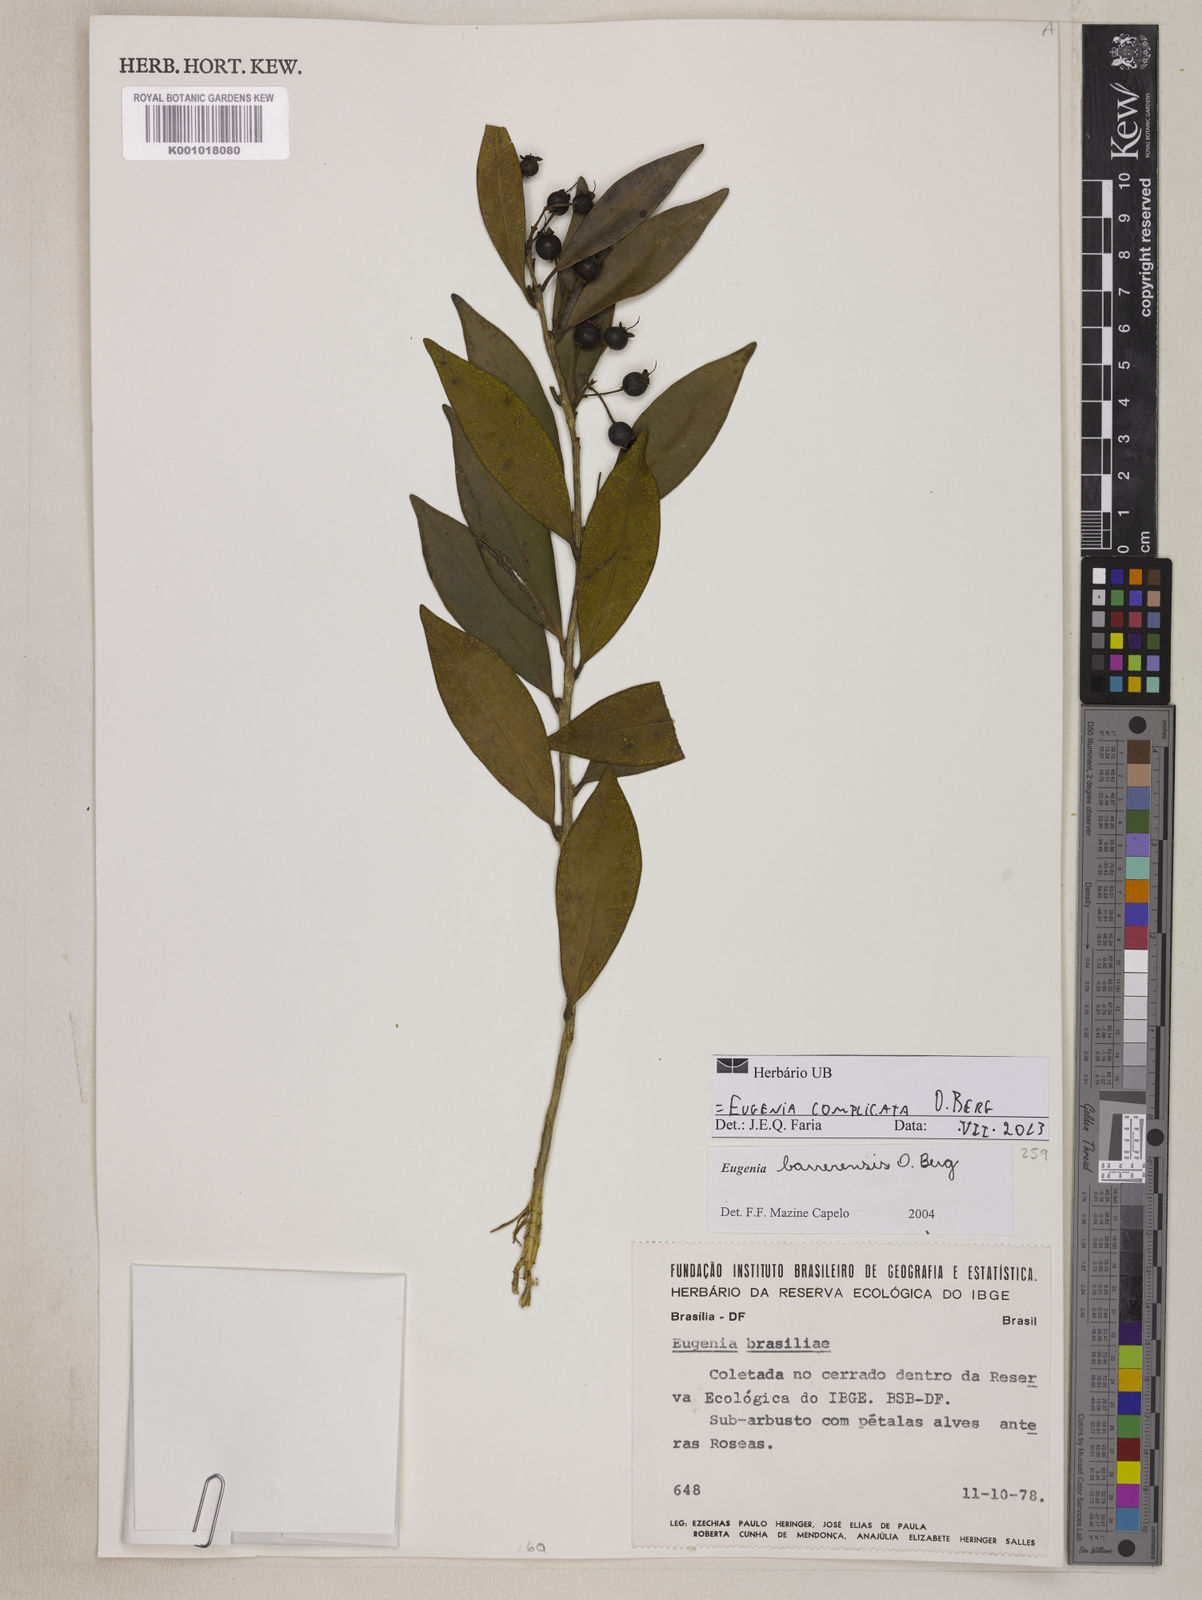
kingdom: Plantae
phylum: Tracheophyta
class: Magnoliopsida
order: Myrtales
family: Myrtaceae
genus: Eugenia
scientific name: Eugenia complicata
